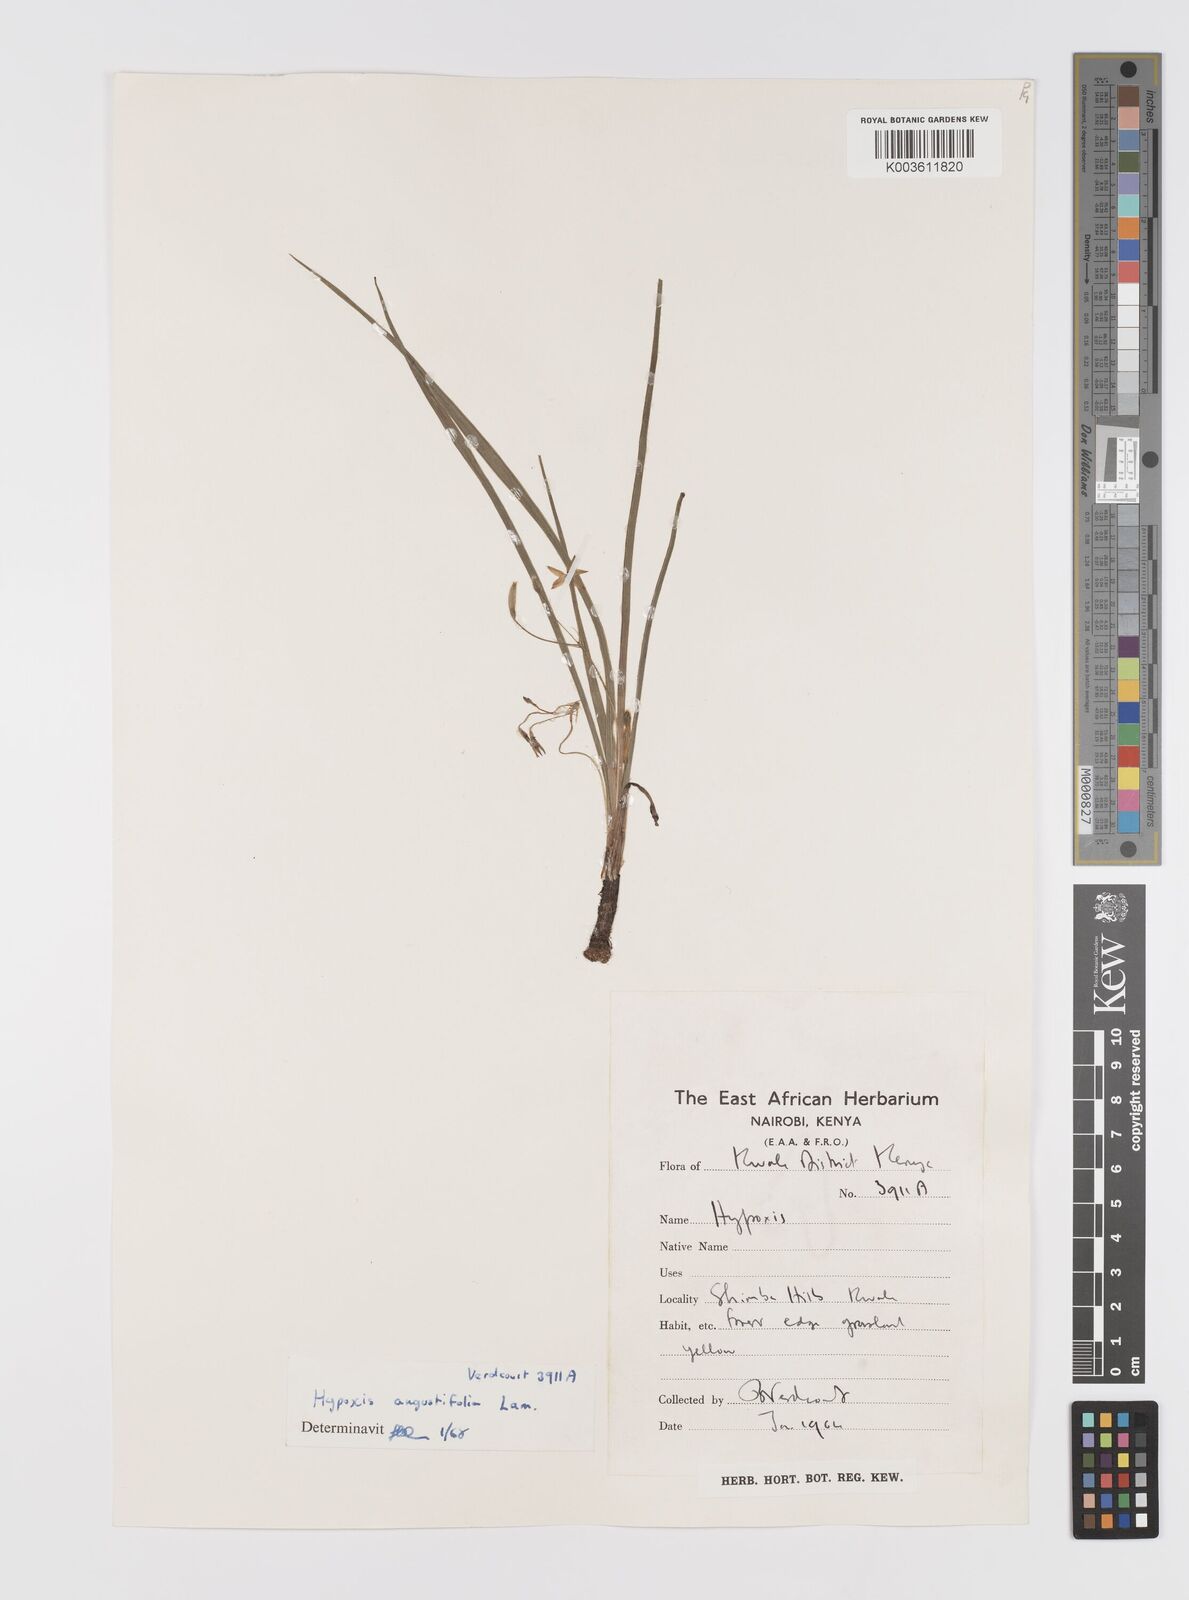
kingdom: Plantae
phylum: Tracheophyta
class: Liliopsida
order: Asparagales
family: Hypoxidaceae
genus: Hypoxis
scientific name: Hypoxis angustifolia
